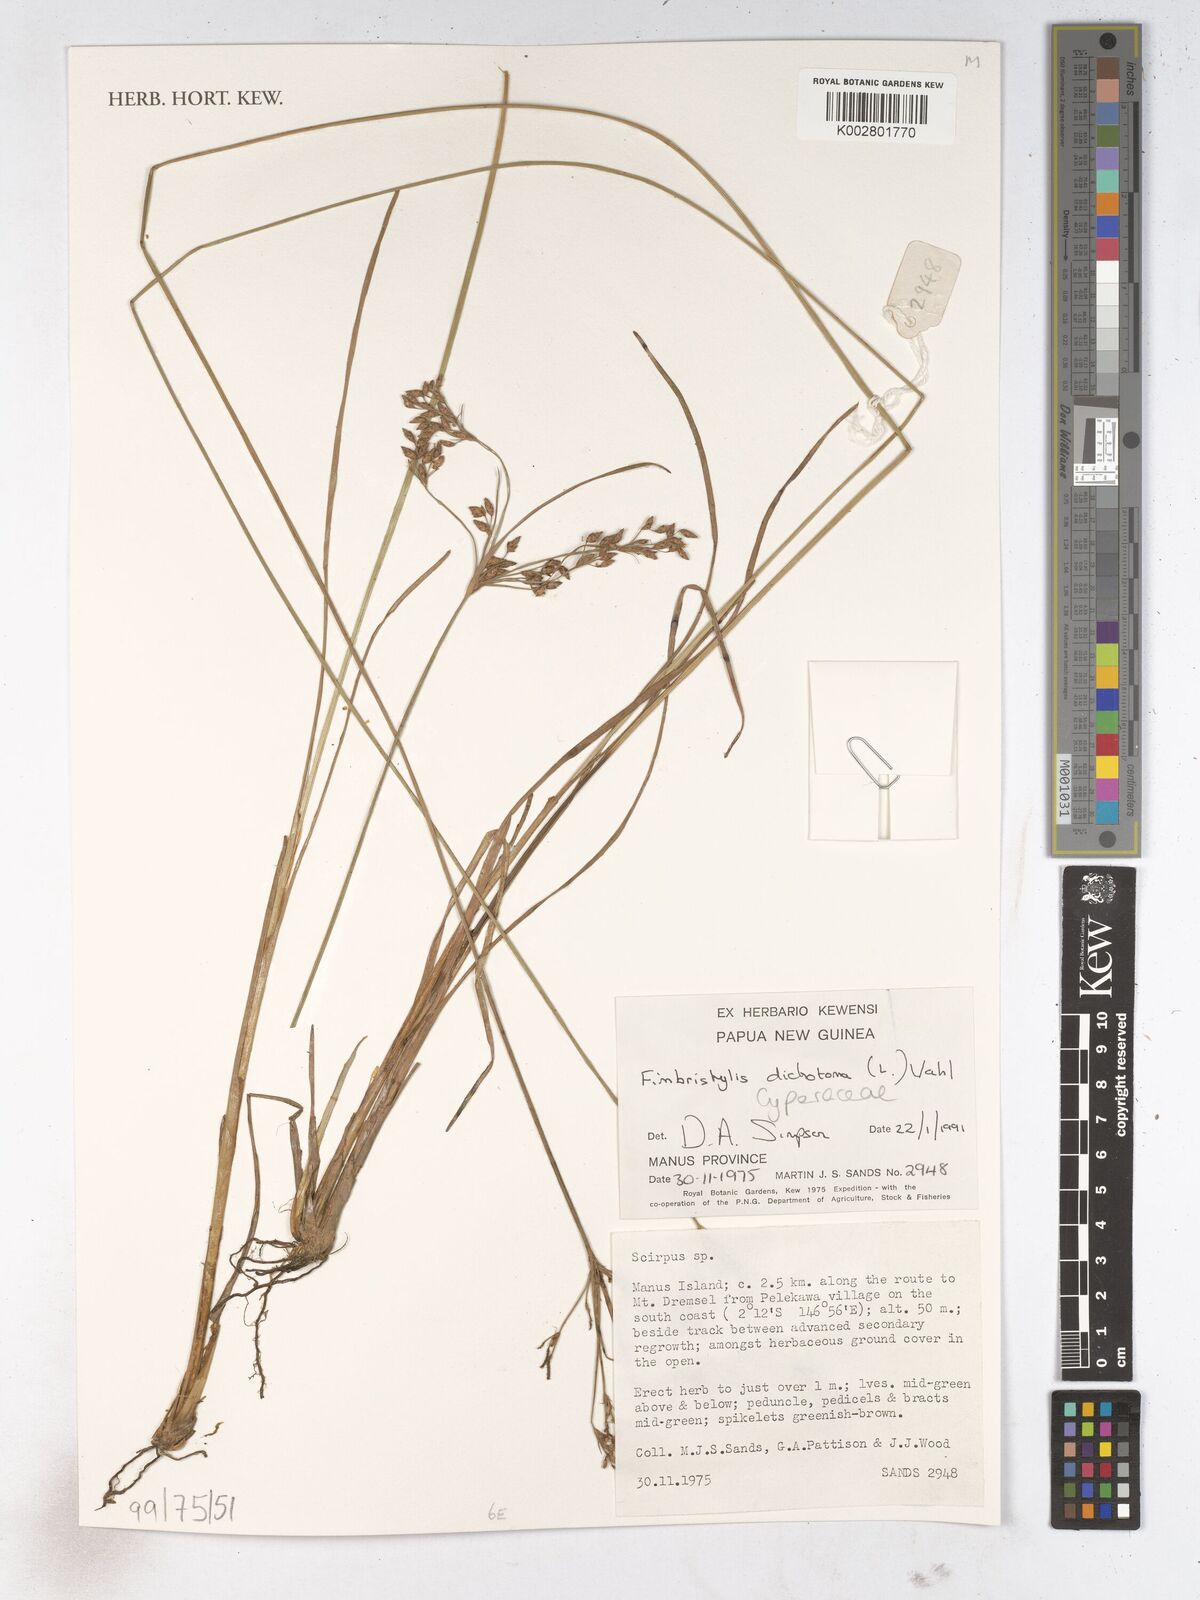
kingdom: Plantae
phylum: Tracheophyta
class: Liliopsida
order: Poales
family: Cyperaceae
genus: Fimbristylis
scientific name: Fimbristylis dichotoma
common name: Forked fimbry
